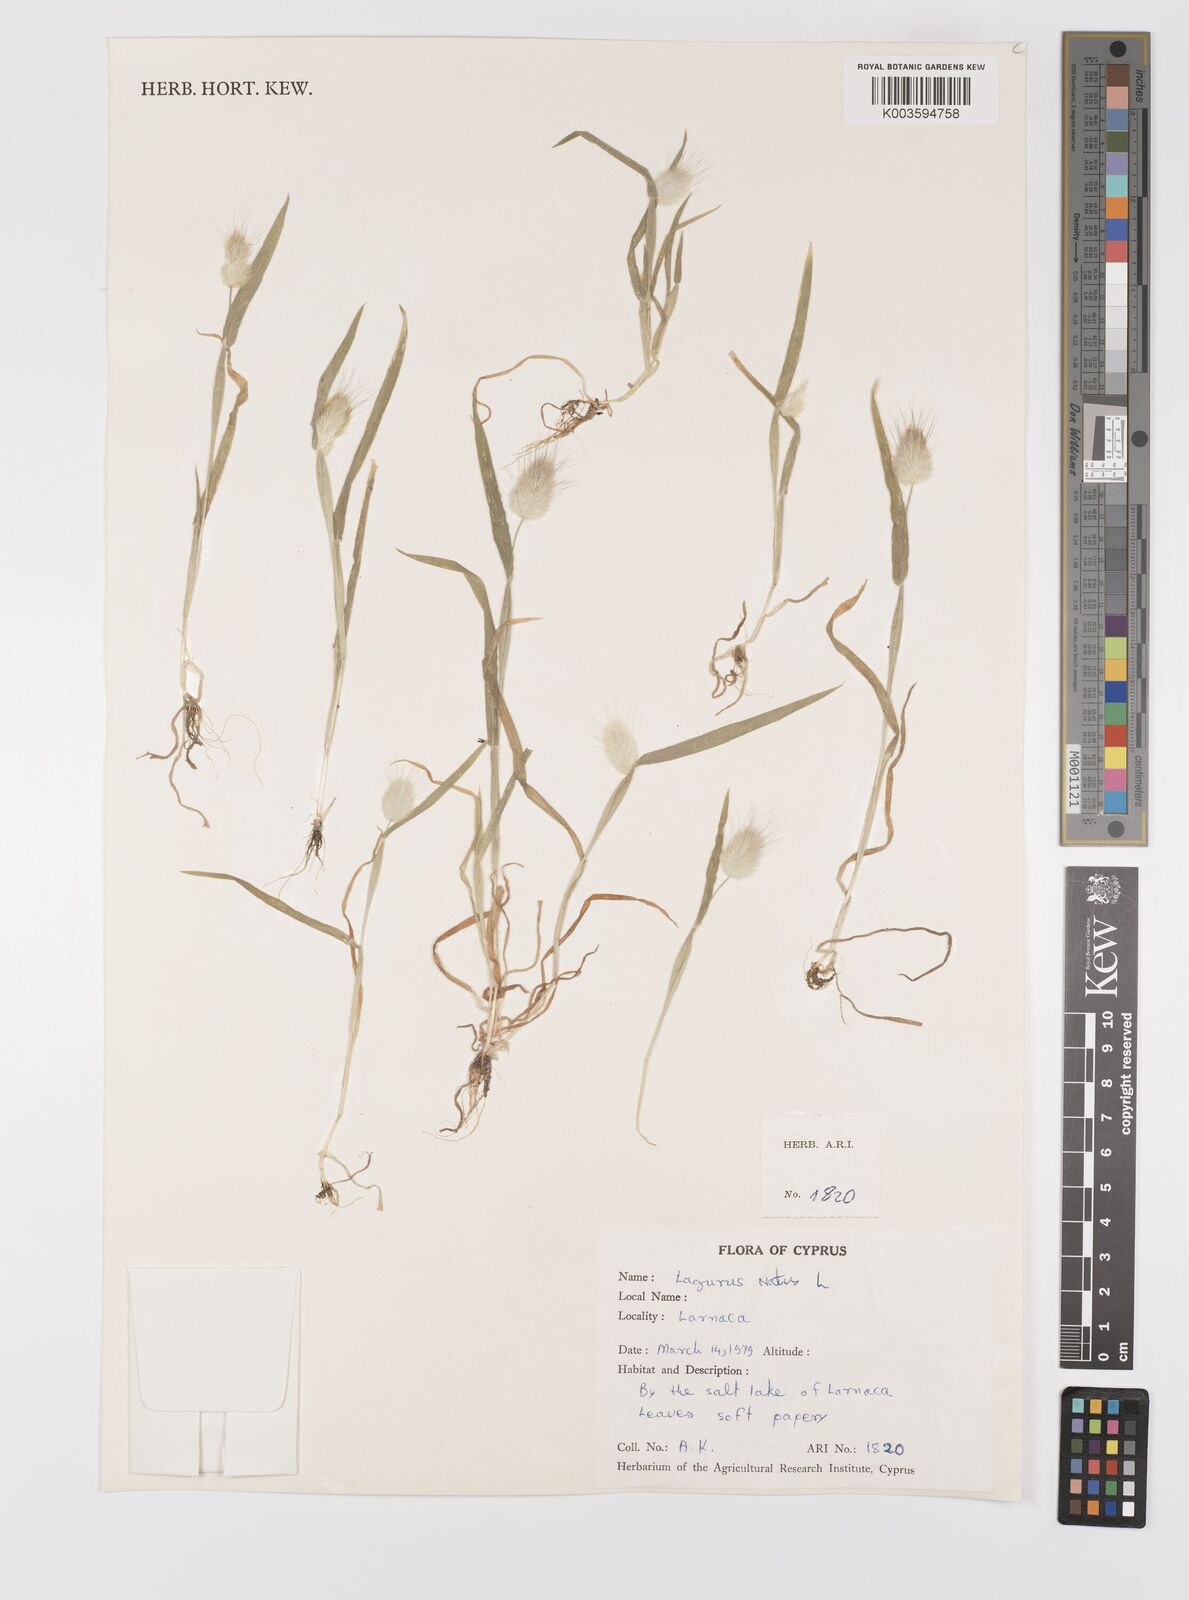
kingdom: Plantae
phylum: Tracheophyta
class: Liliopsida
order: Poales
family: Poaceae
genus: Lagurus
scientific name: Lagurus ovatus
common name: Hare's-tail
